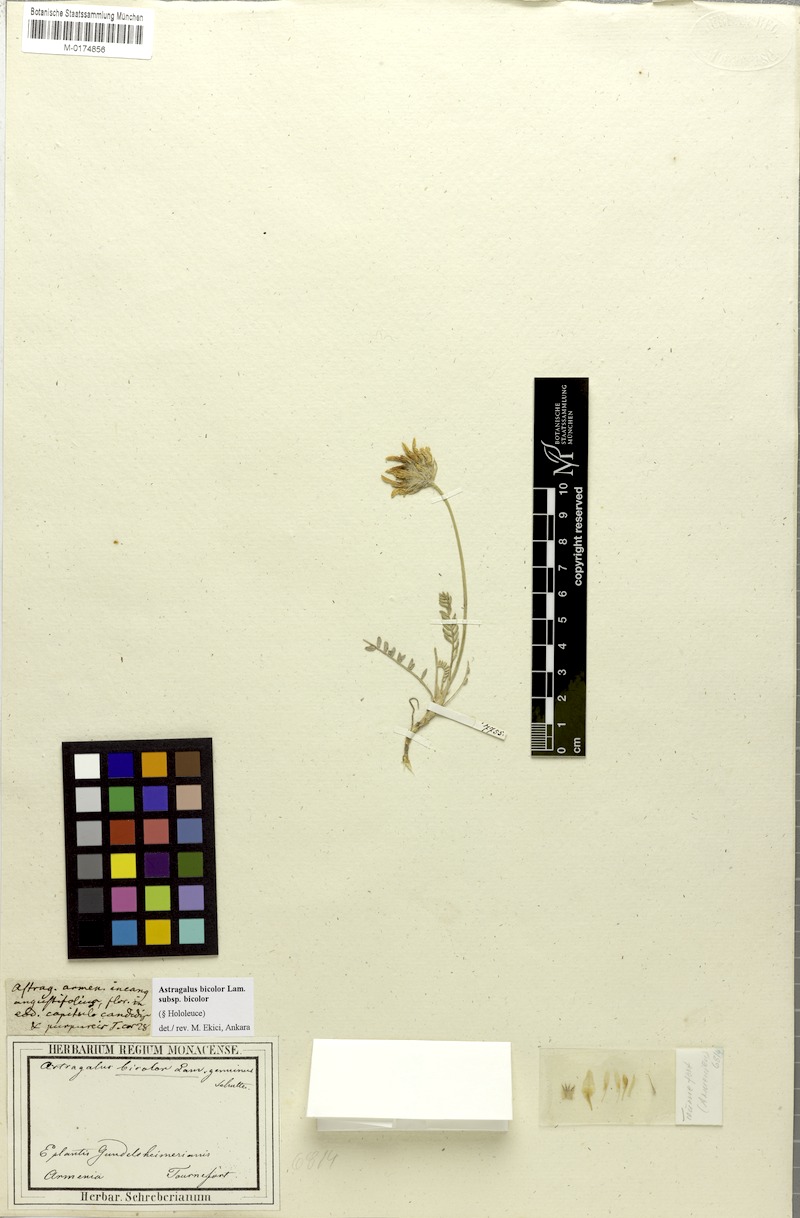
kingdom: Plantae
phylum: Tracheophyta
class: Magnoliopsida
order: Fabales
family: Fabaceae
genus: Astragalus
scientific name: Astragalus bicolor
